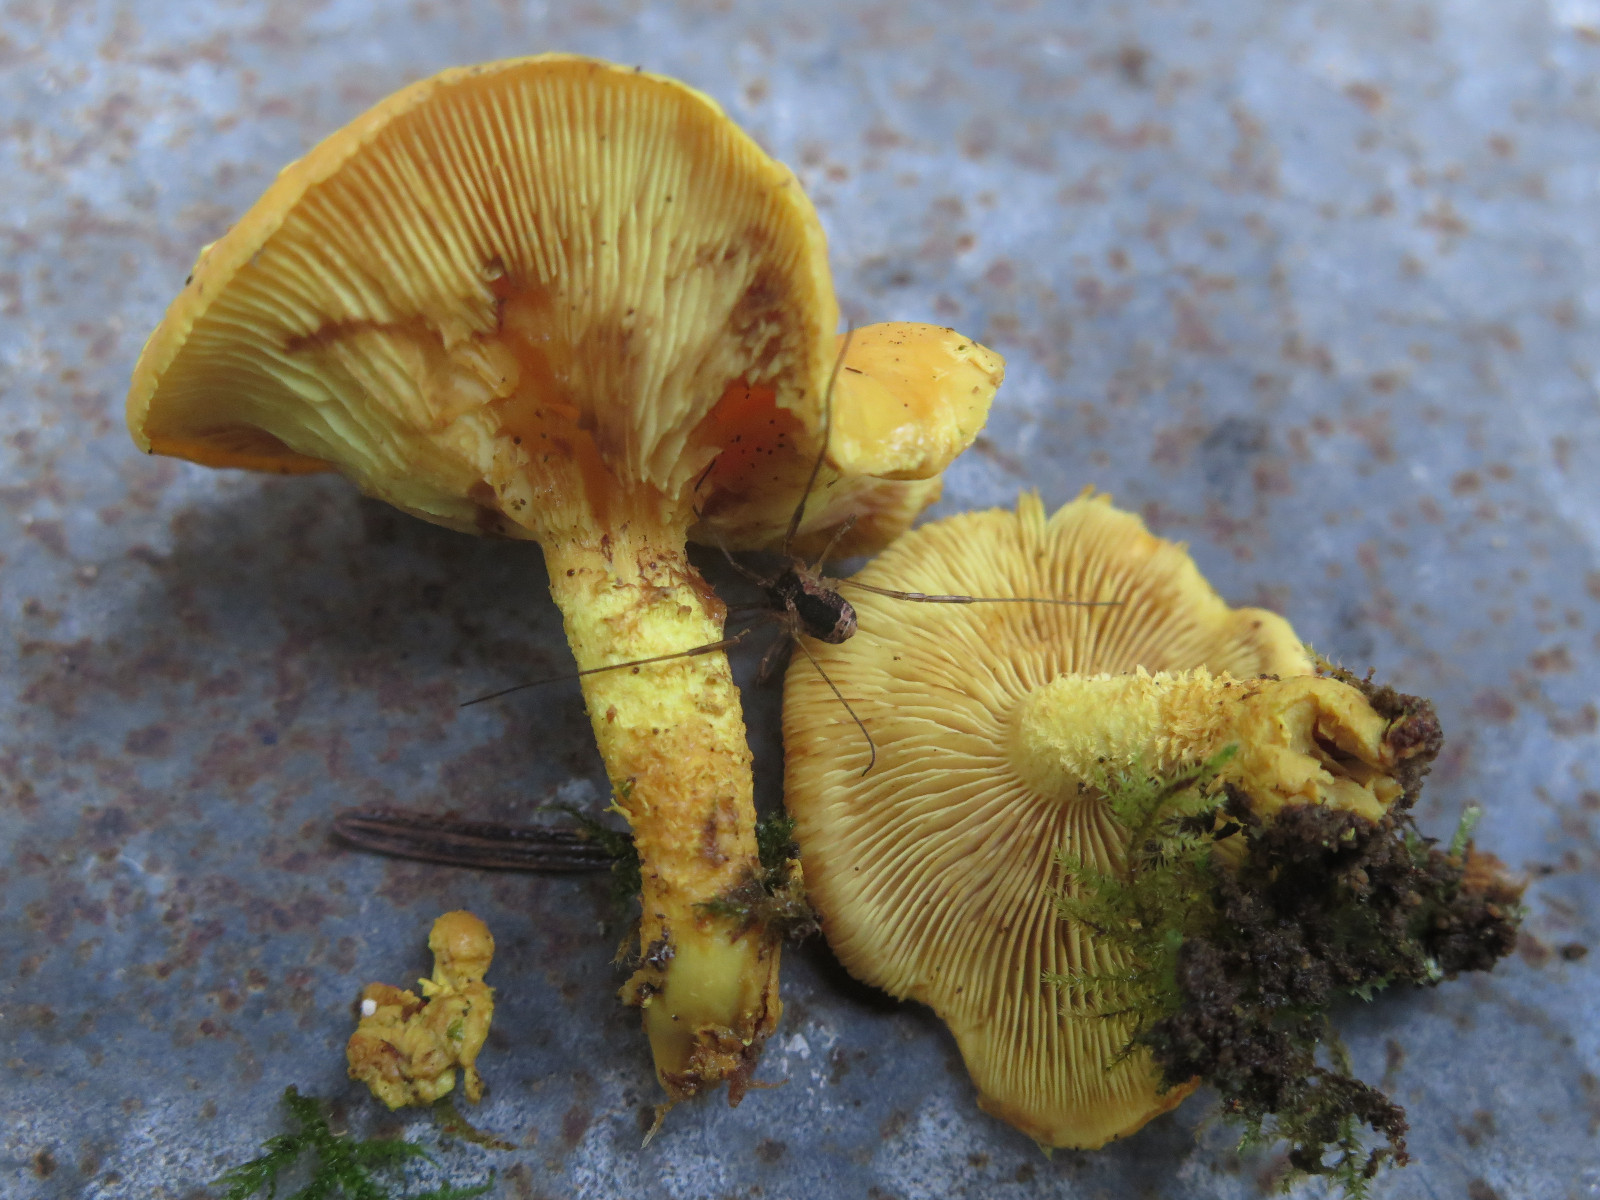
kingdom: Fungi
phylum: Basidiomycota
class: Agaricomycetes
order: Agaricales
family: Strophariaceae
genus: Pholiota
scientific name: Pholiota flammans
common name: flamme-skælhat
